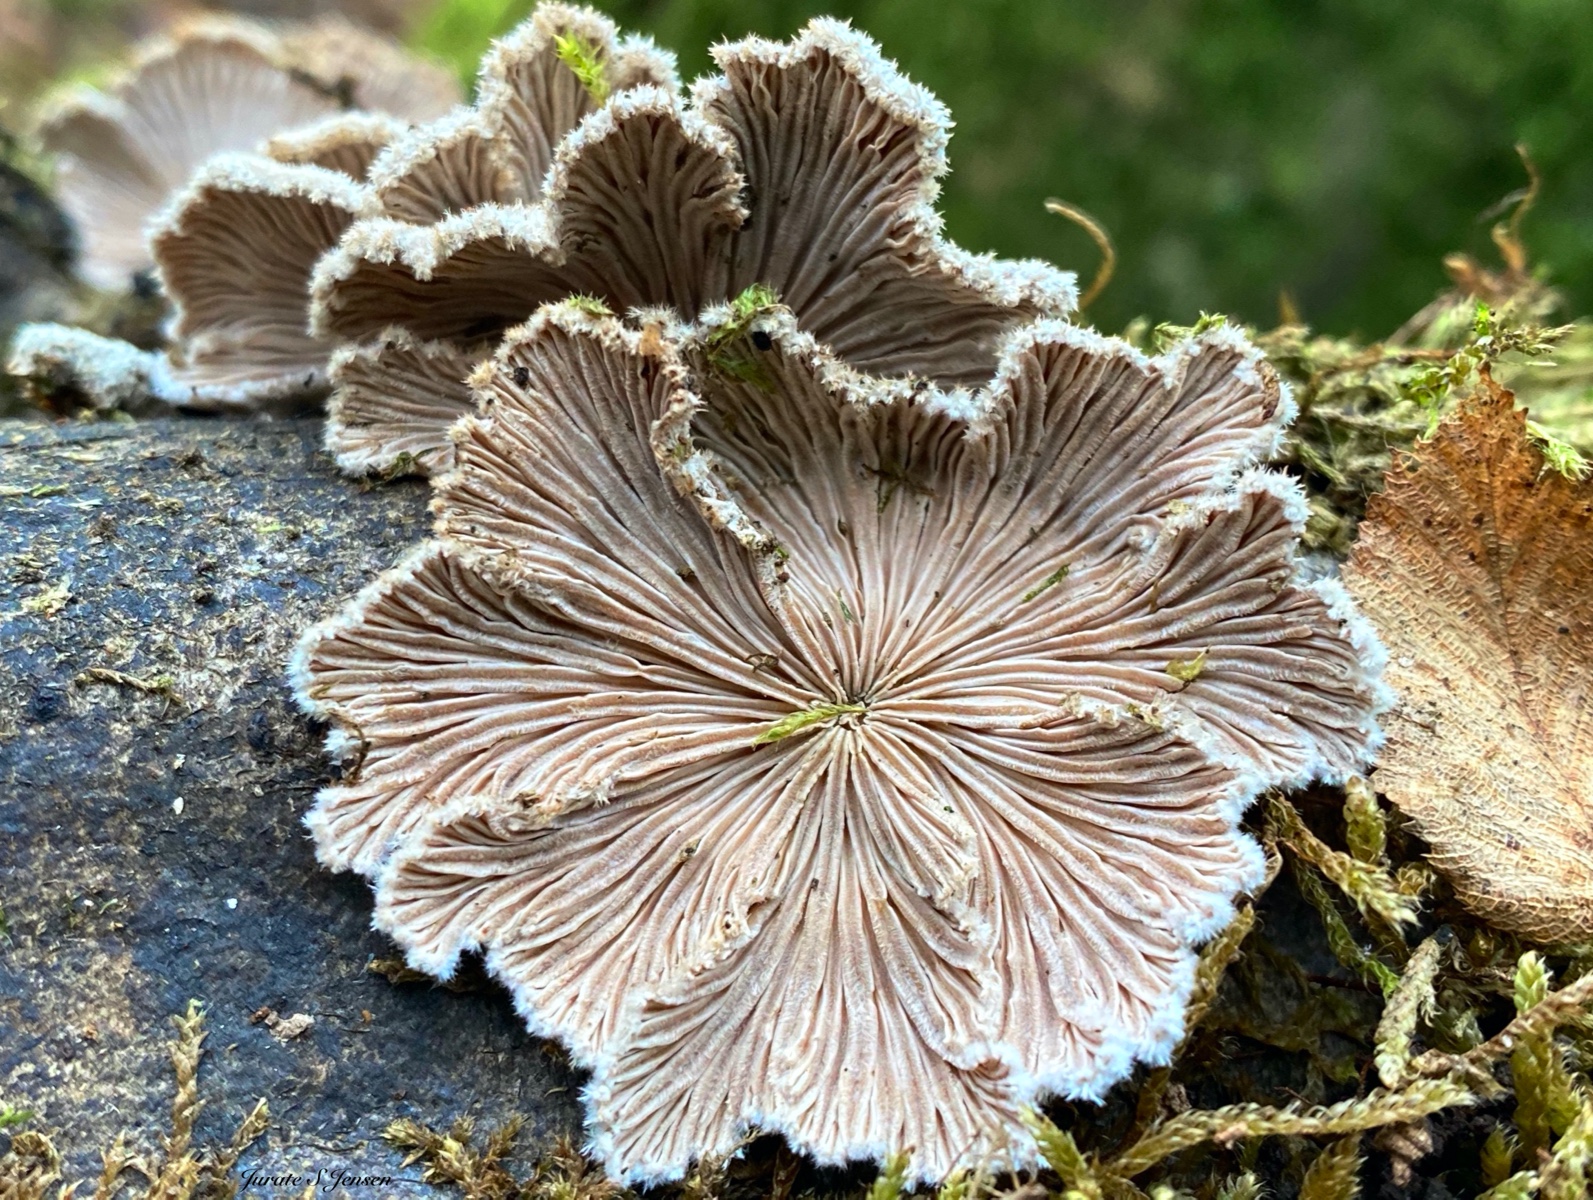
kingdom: Fungi
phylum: Basidiomycota
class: Agaricomycetes
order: Agaricales
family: Schizophyllaceae
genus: Schizophyllum
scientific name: Schizophyllum commune
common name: kløvblad
